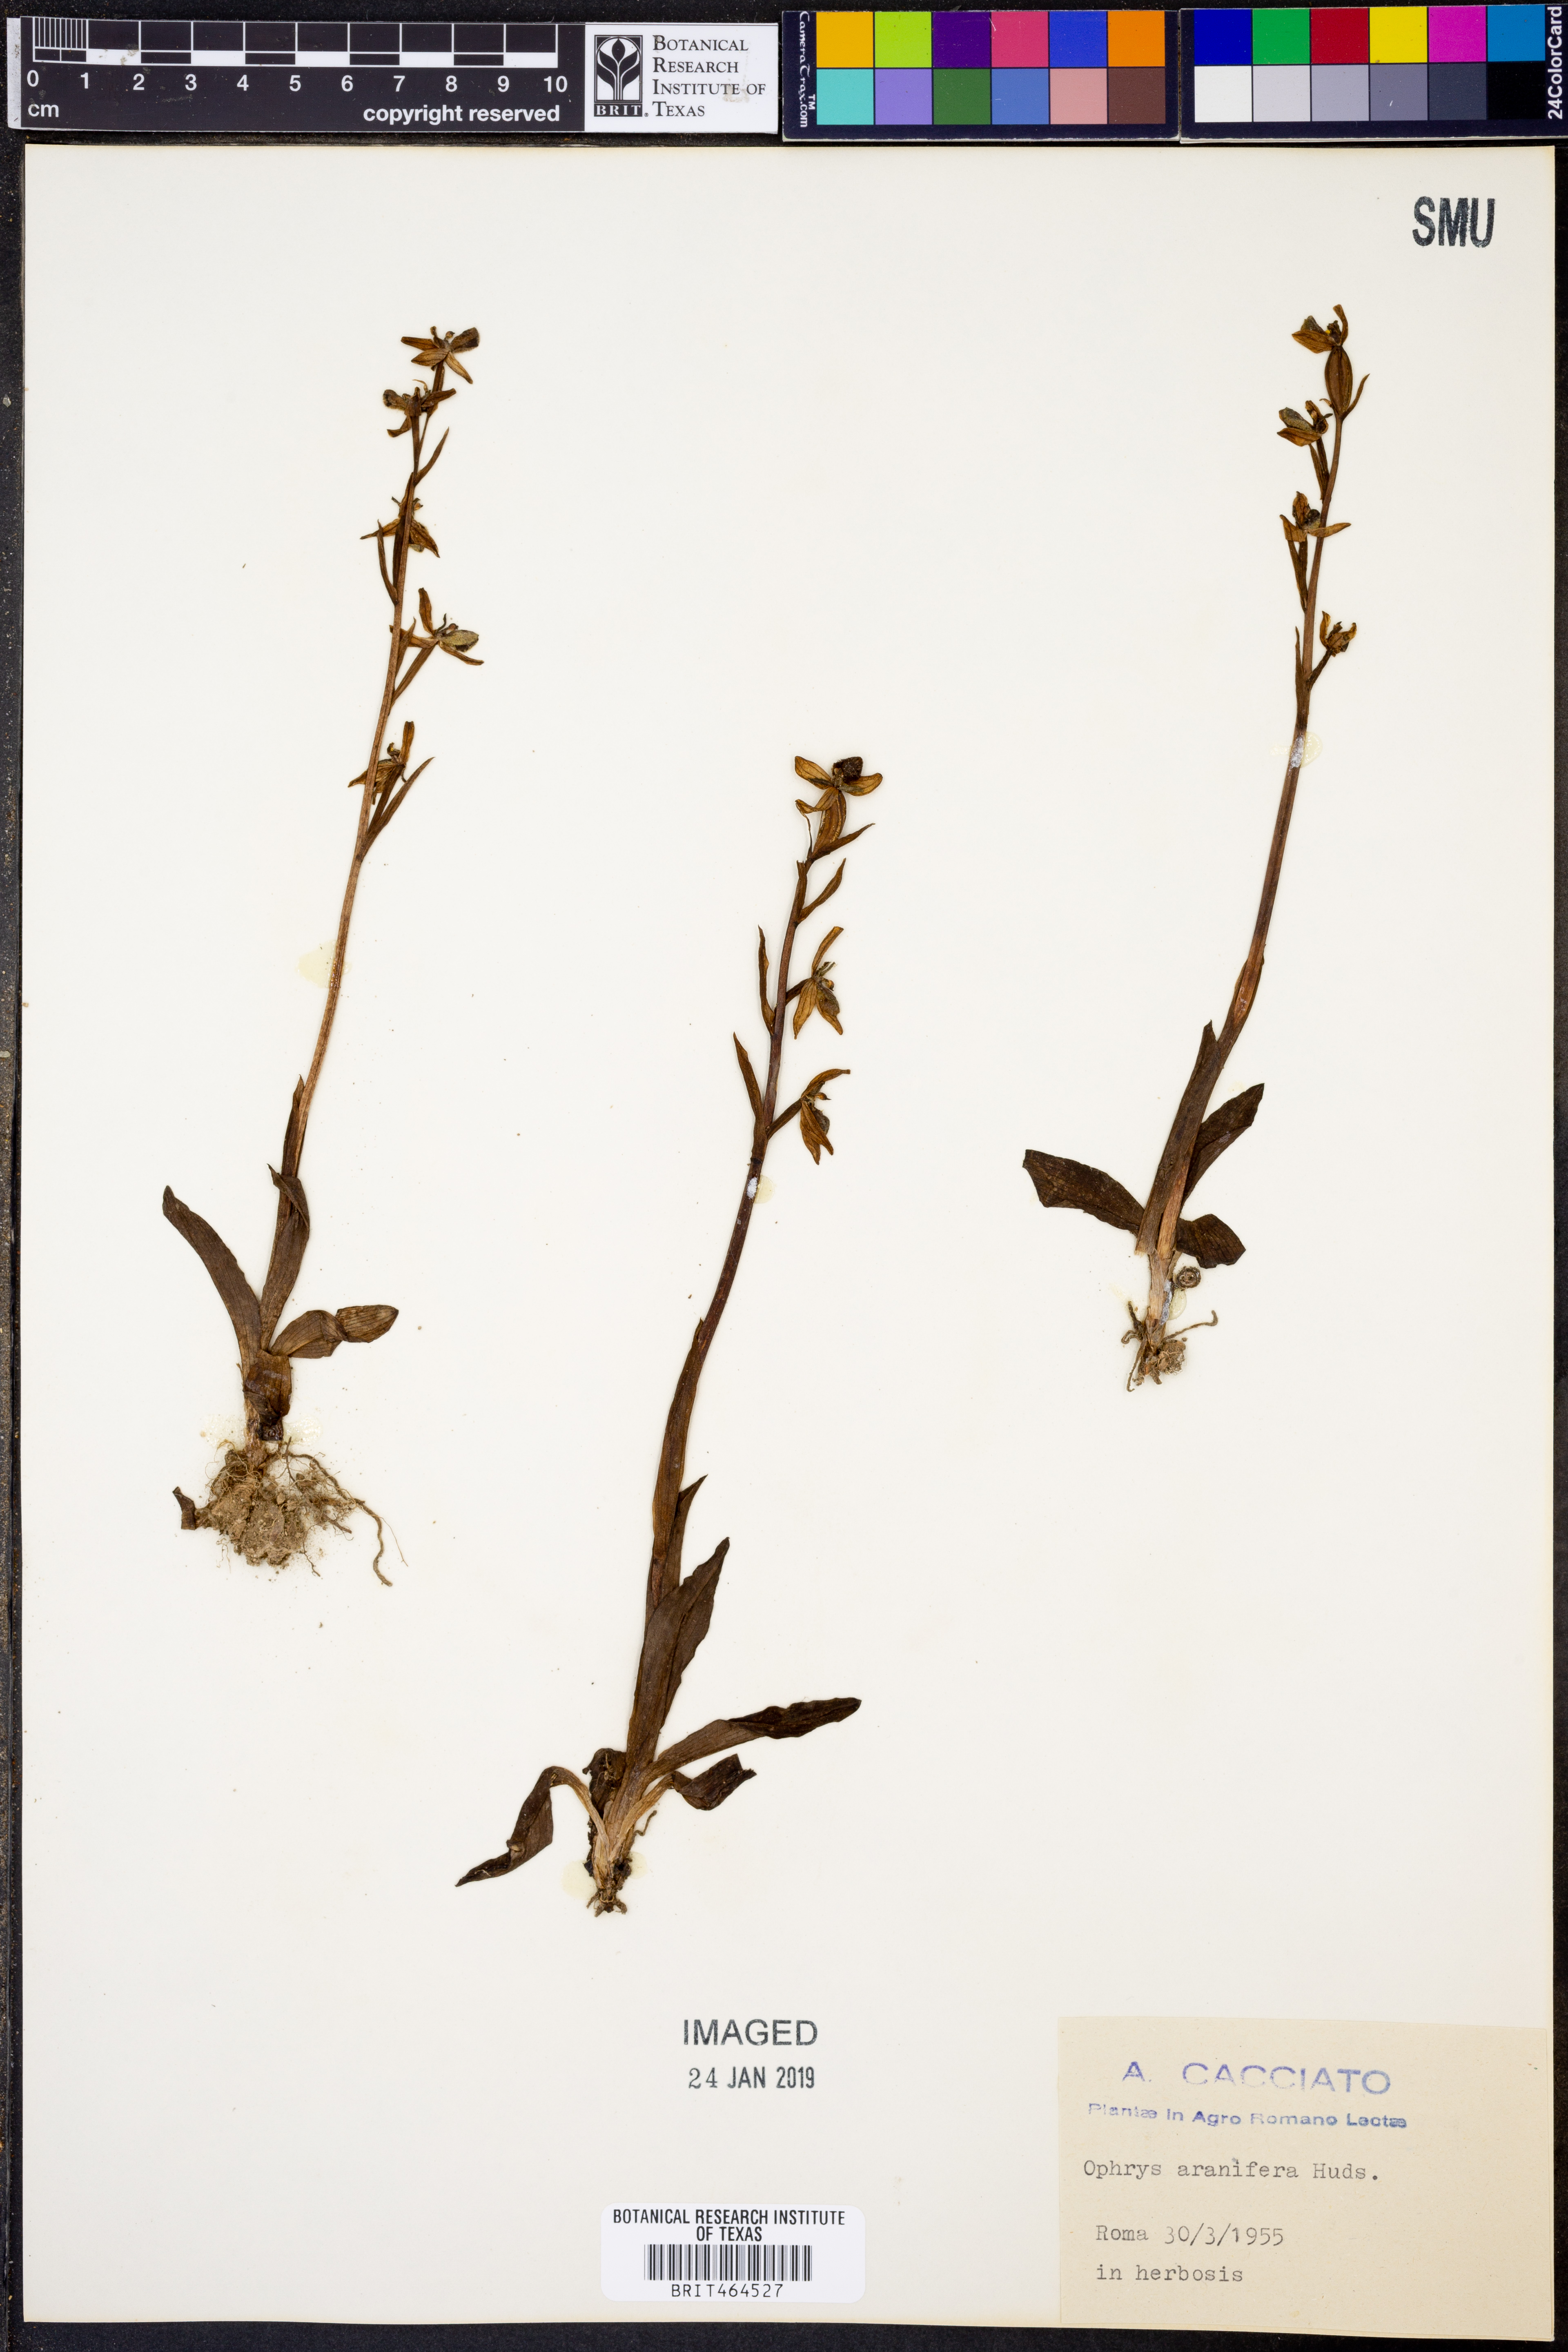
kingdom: Plantae
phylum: Tracheophyta
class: Liliopsida
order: Asparagales
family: Orchidaceae
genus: Ophrys
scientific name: Ophrys sphegodes
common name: Early spider-orchid
